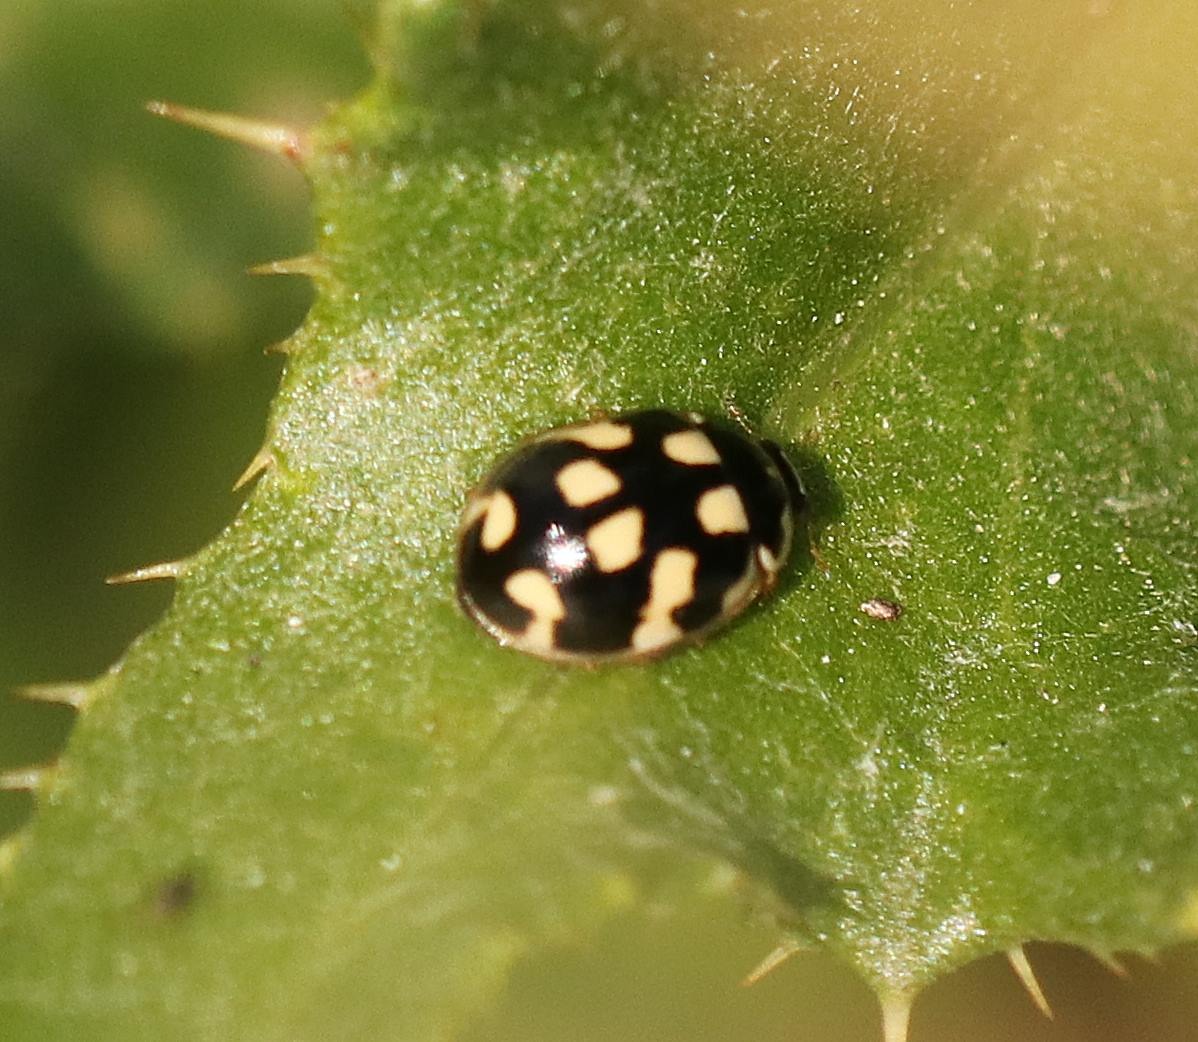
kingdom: Animalia
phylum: Arthropoda
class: Insecta
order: Coleoptera
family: Coccinellidae
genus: Propylaea
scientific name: Propylaea quatuordecimpunctata
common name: Skakbræt
